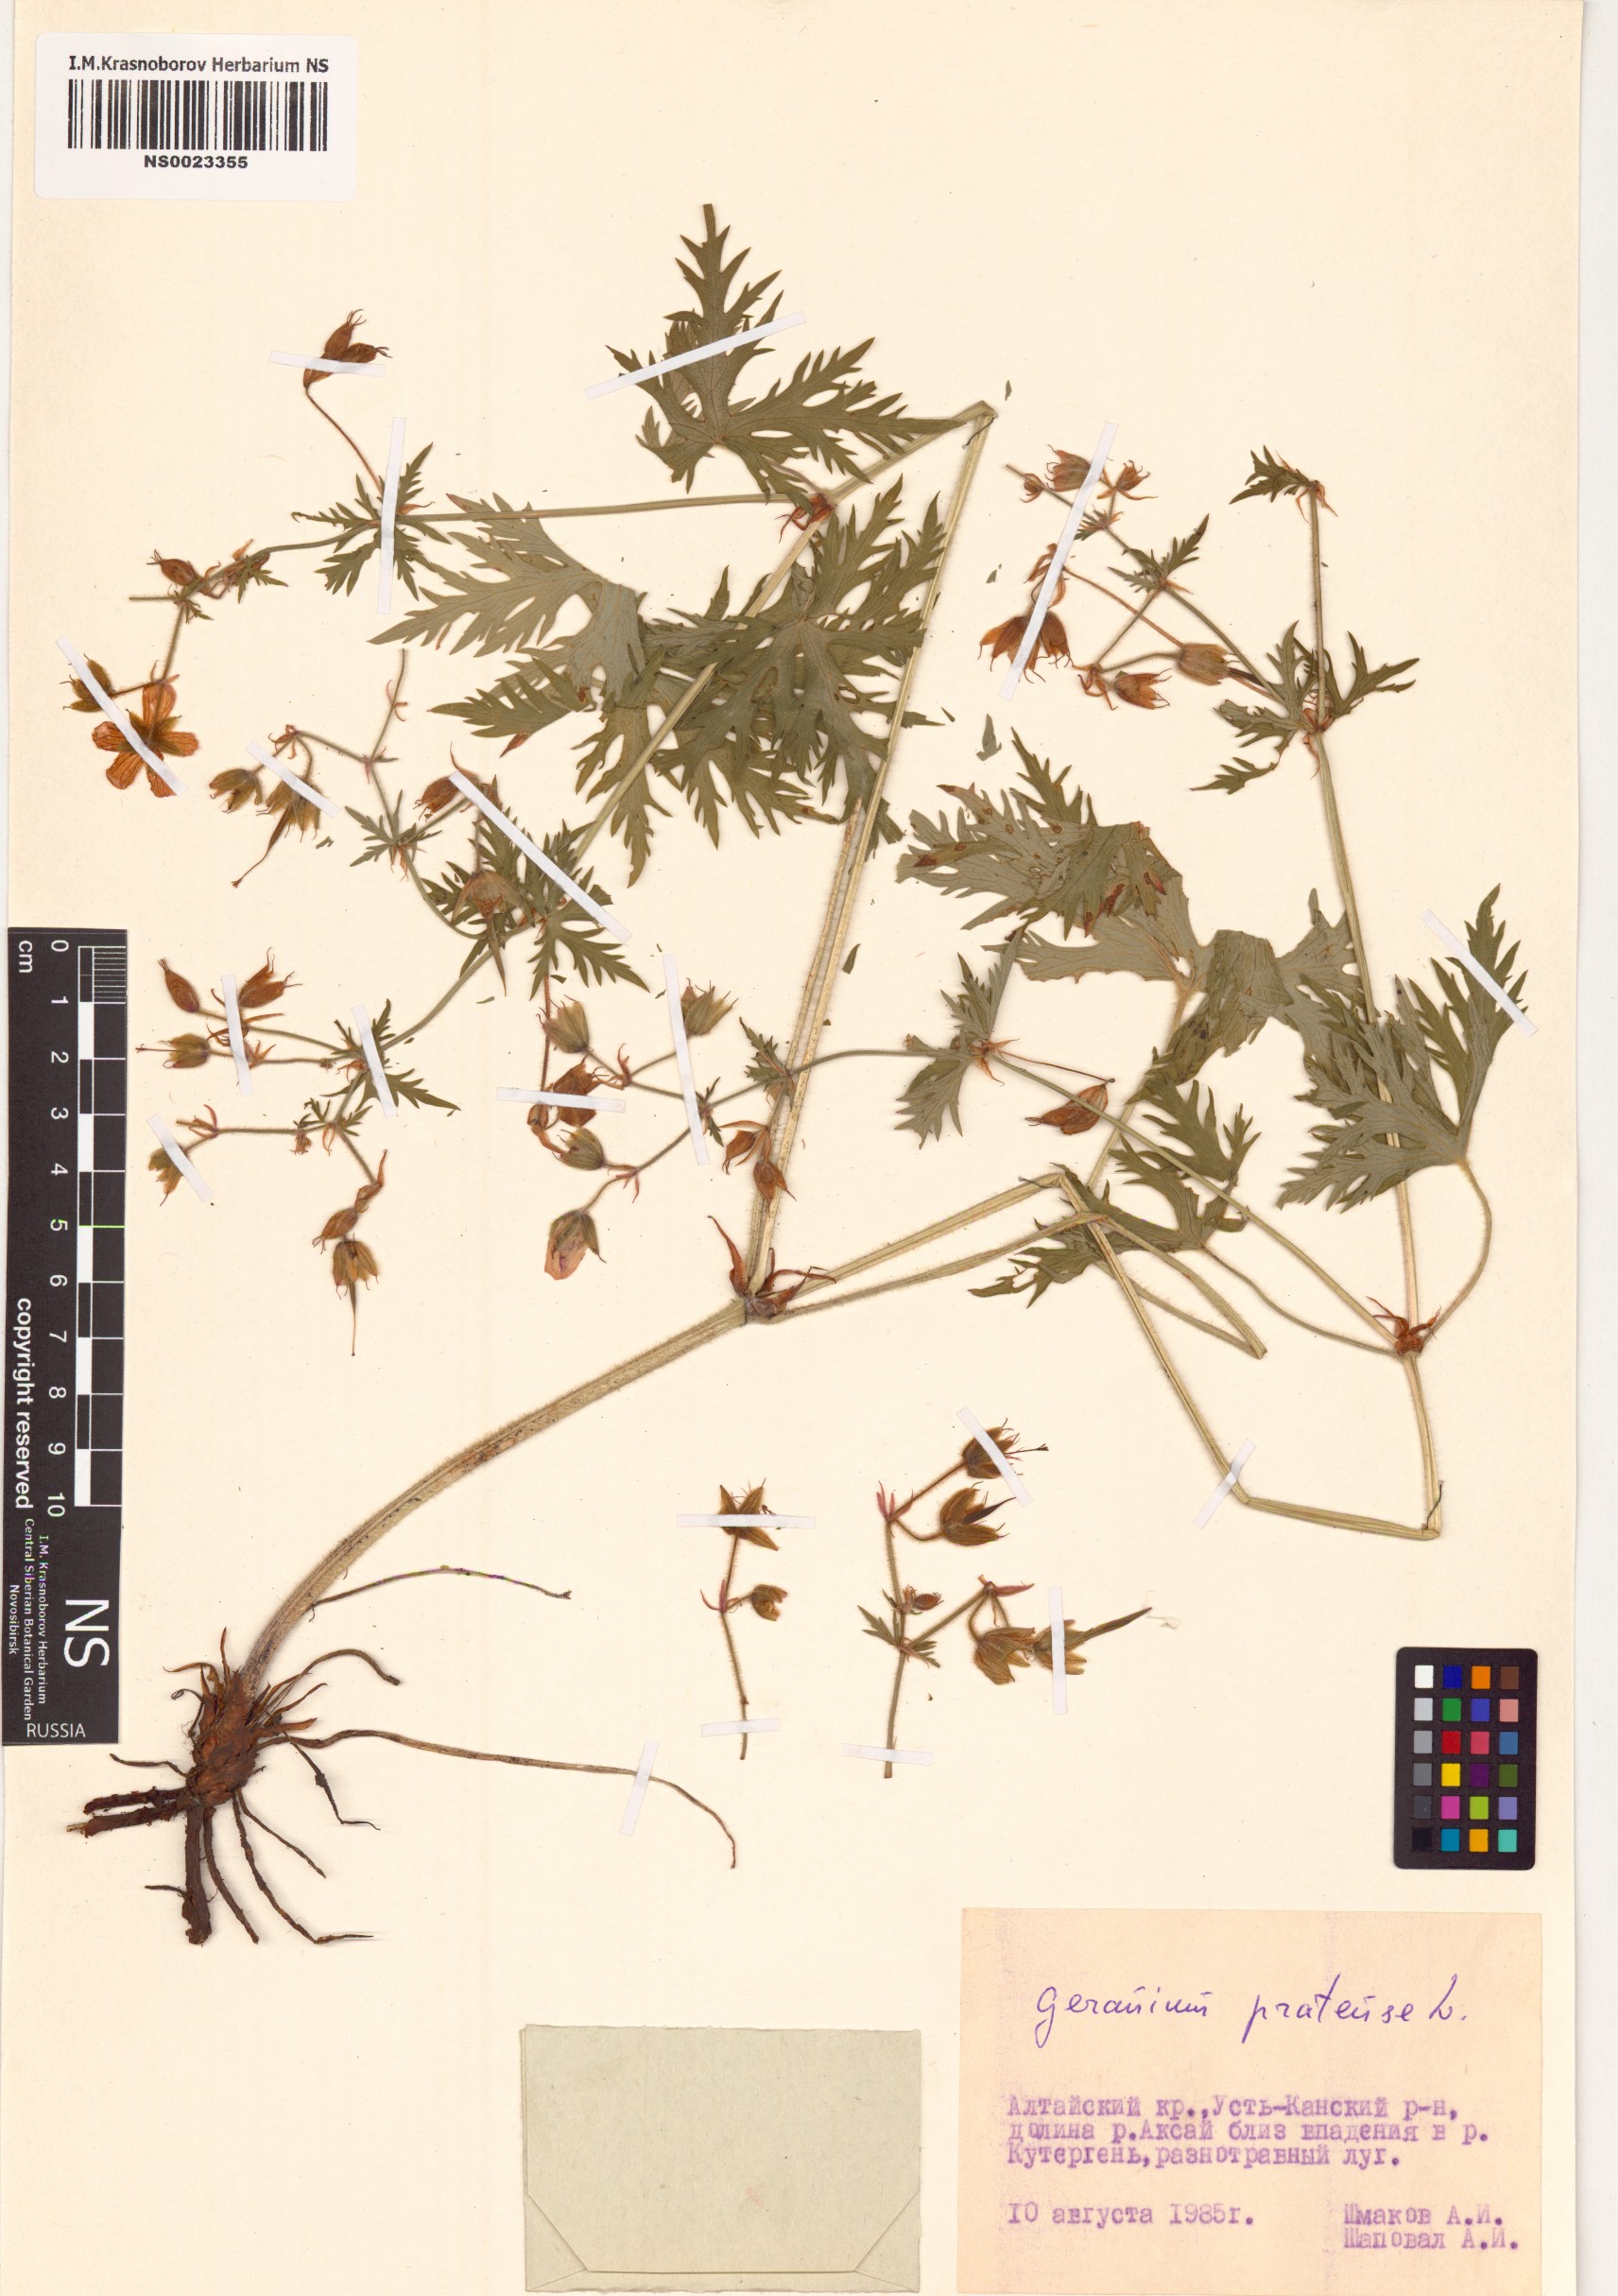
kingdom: Plantae
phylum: Tracheophyta
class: Magnoliopsida
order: Geraniales
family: Geraniaceae
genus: Geranium
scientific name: Geranium pratense
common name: Meadow crane's-bill
